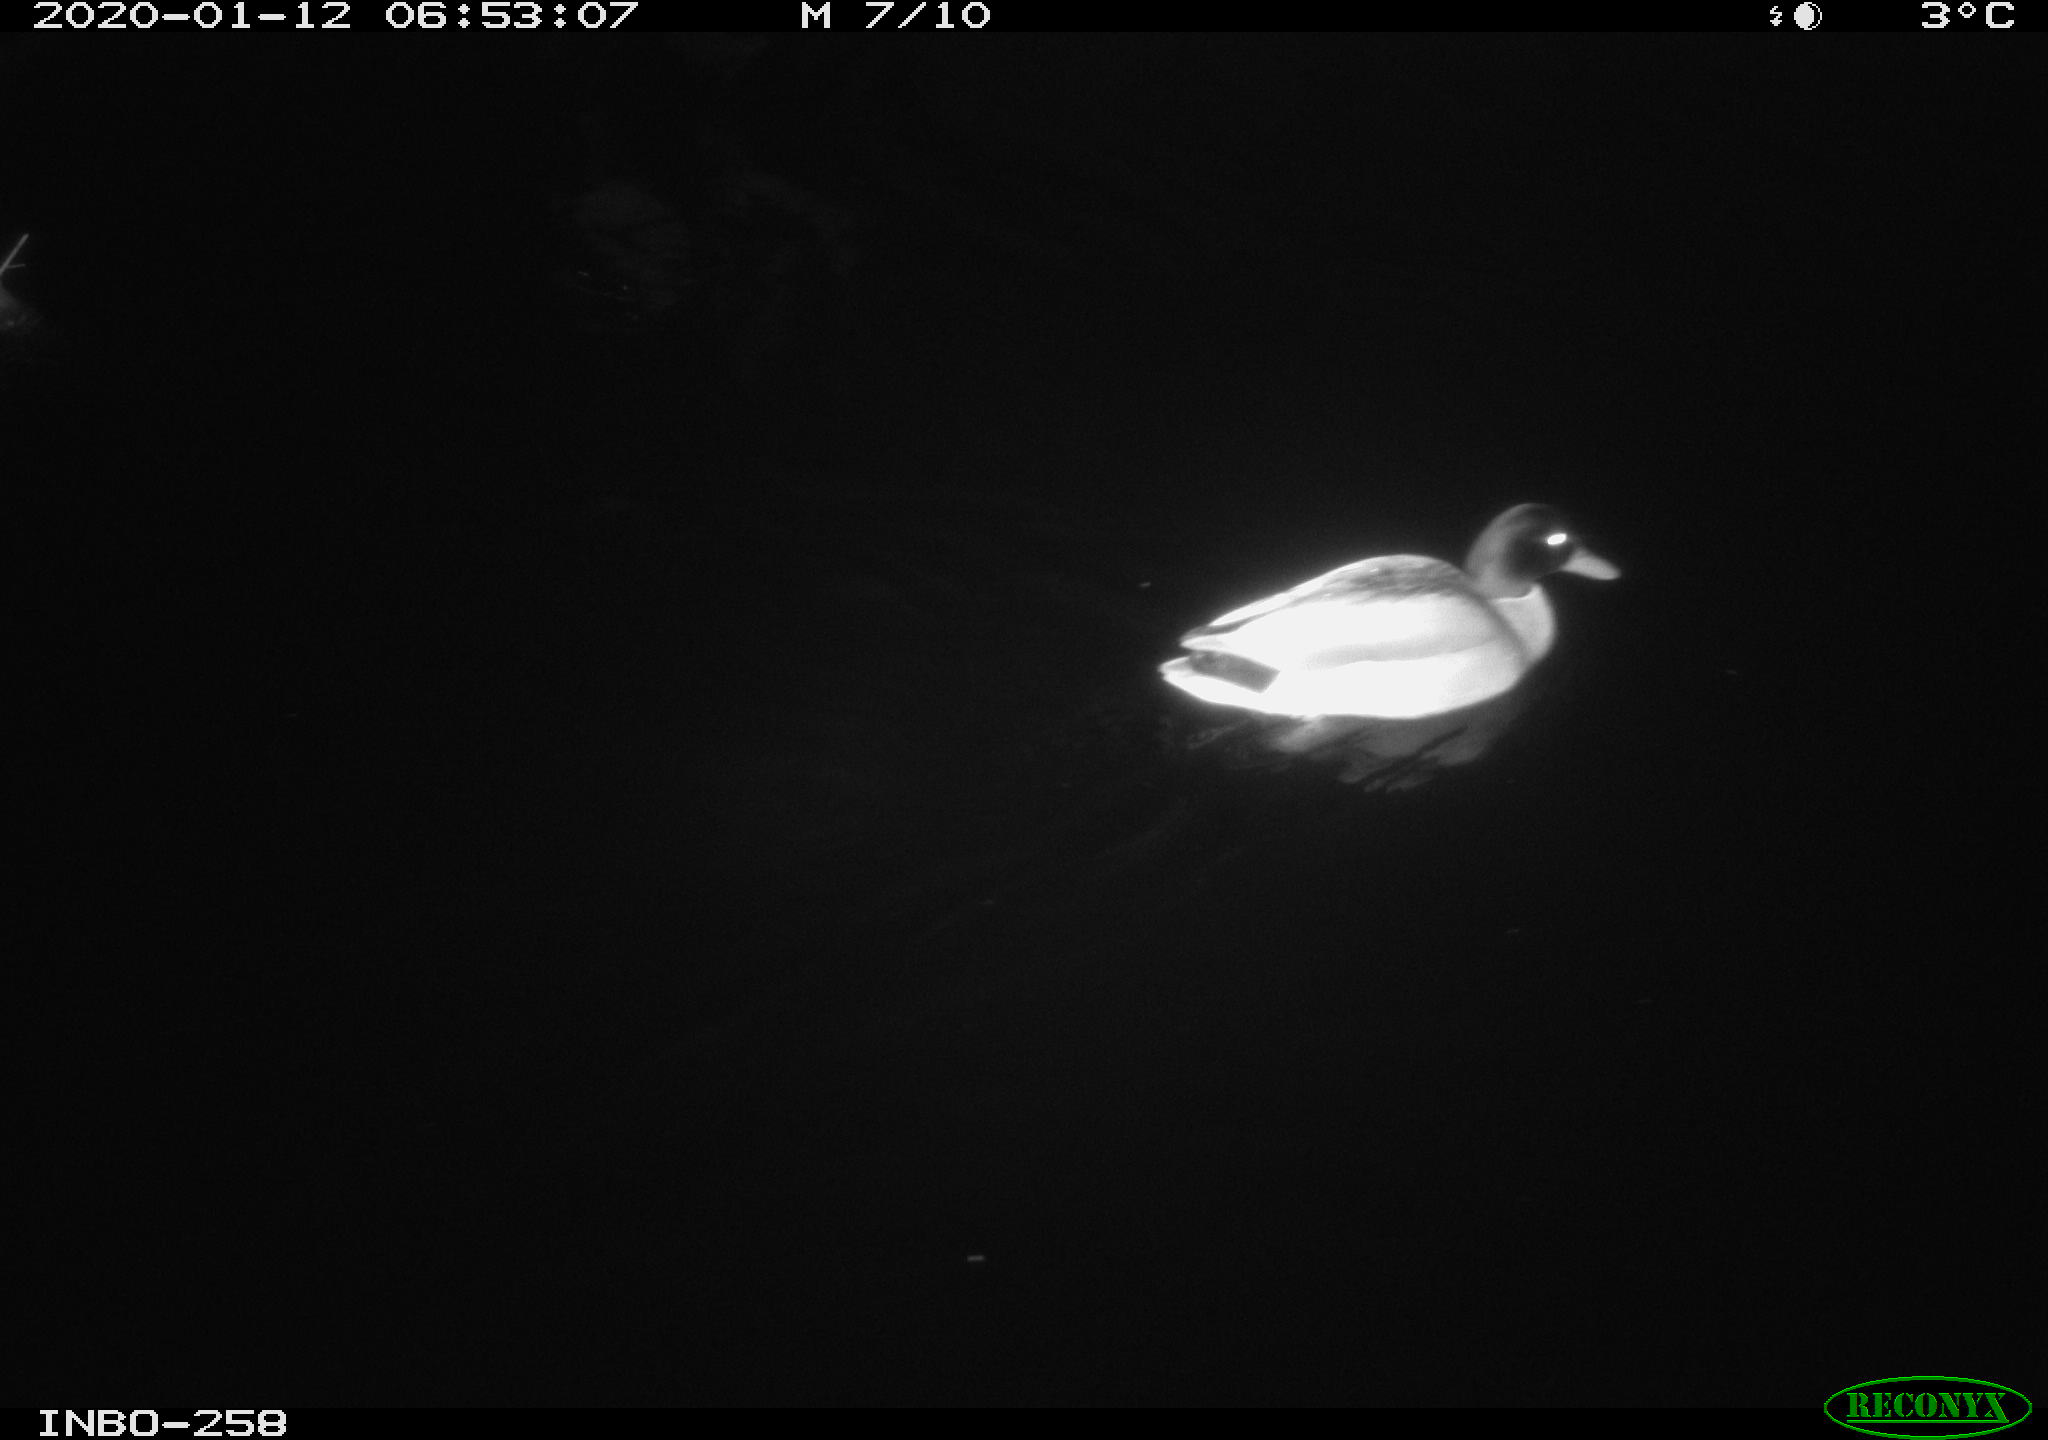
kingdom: Animalia
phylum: Chordata
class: Aves
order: Anseriformes
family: Anatidae
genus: Anas
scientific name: Anas platyrhynchos
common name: Mallard
